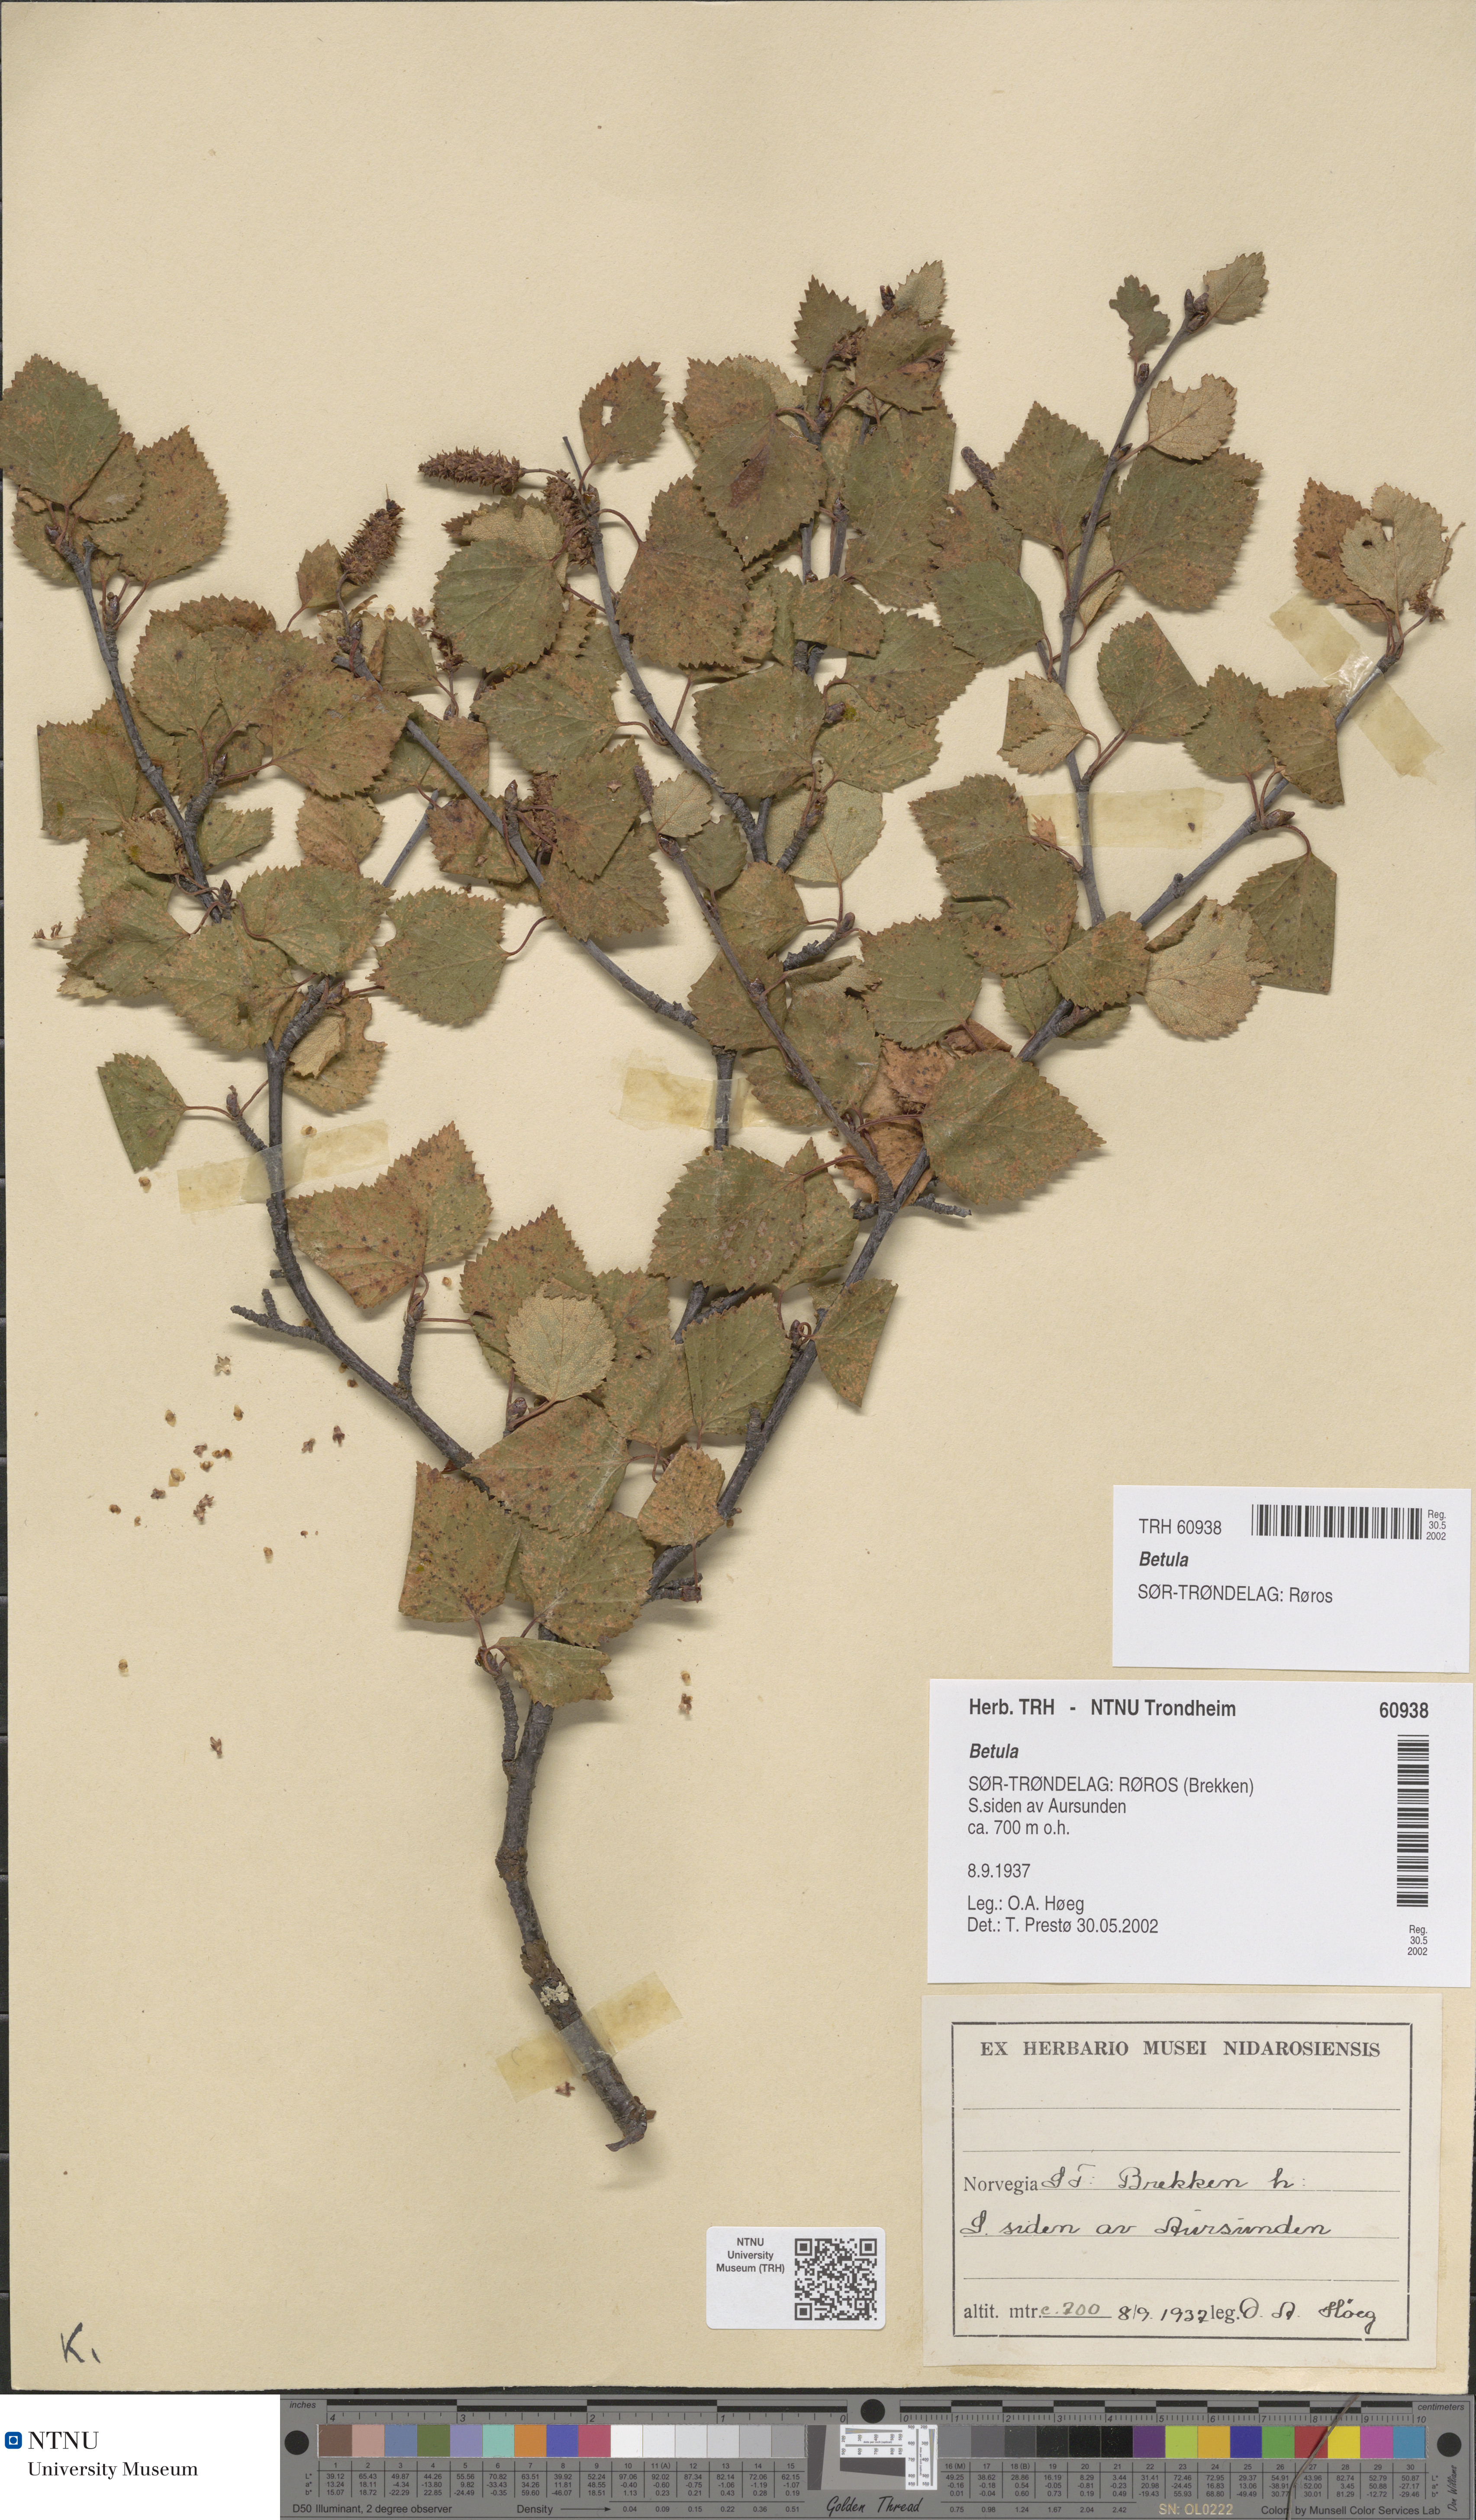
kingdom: Plantae
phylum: Tracheophyta
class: Magnoliopsida
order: Fagales
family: Betulaceae
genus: Betula
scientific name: Betula
